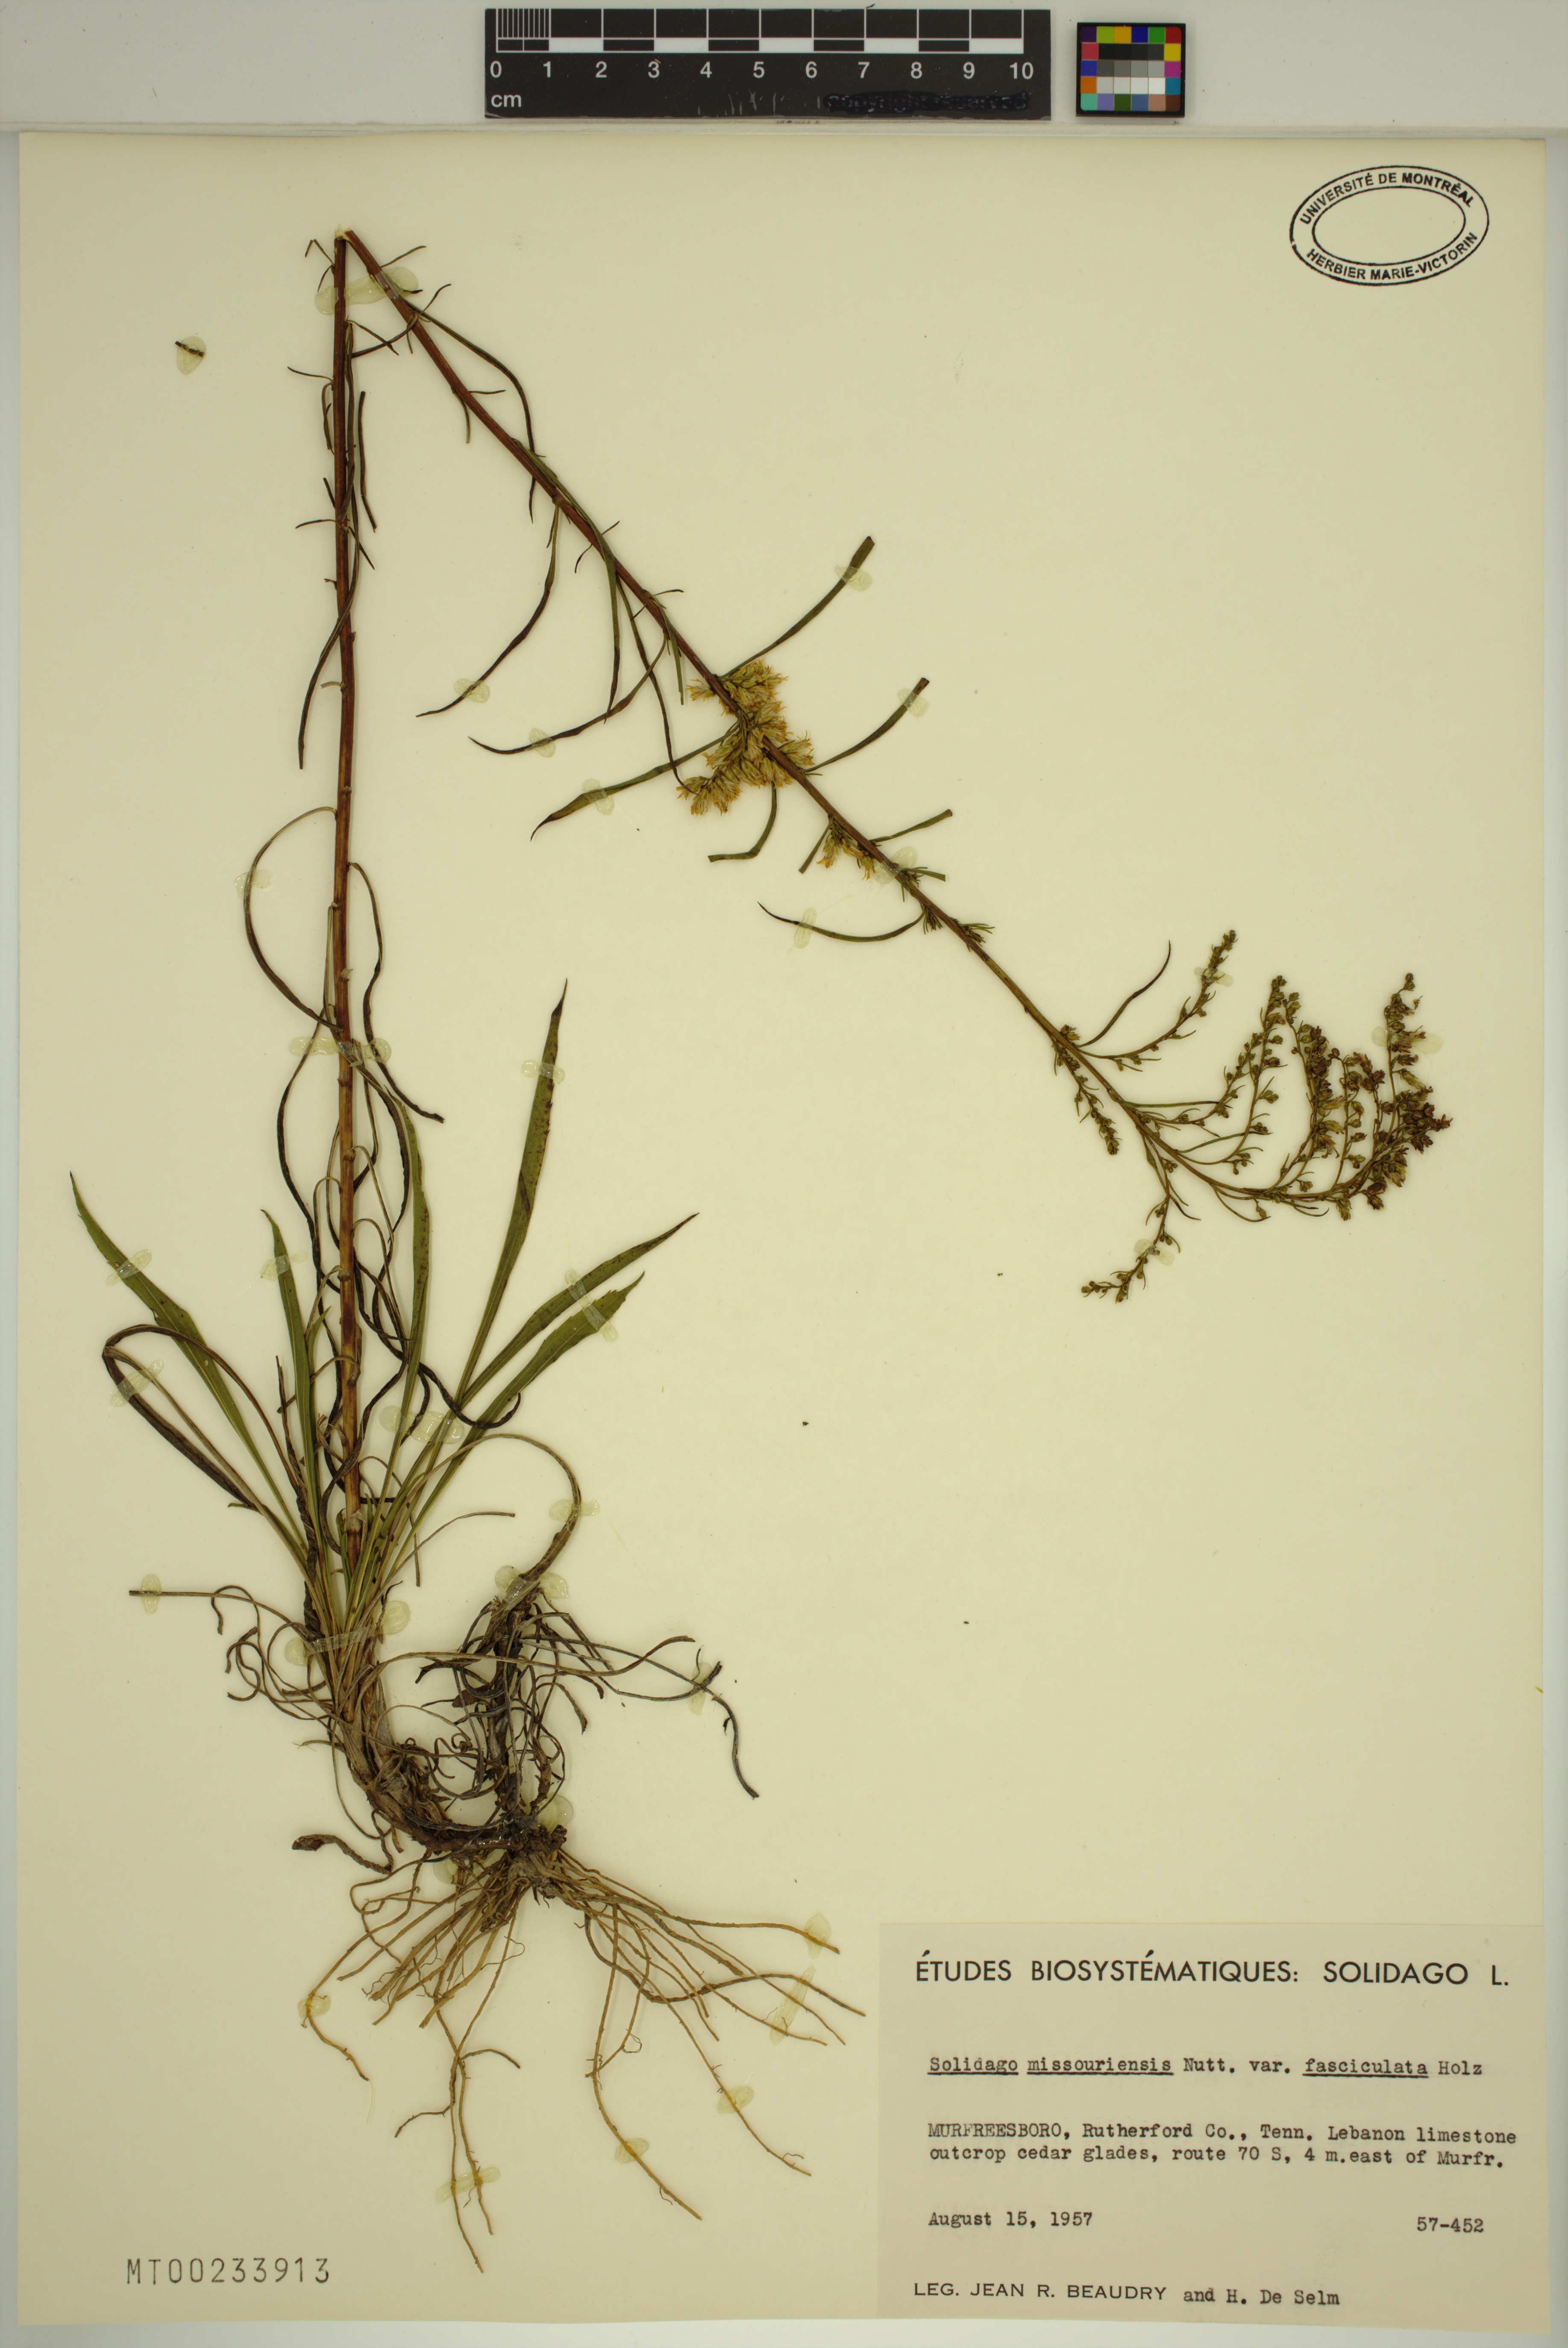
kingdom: Plantae
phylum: Tracheophyta
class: Magnoliopsida
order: Asterales
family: Asteraceae
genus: Solidago
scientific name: Solidago missouriensis
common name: Prairie goldenrod
